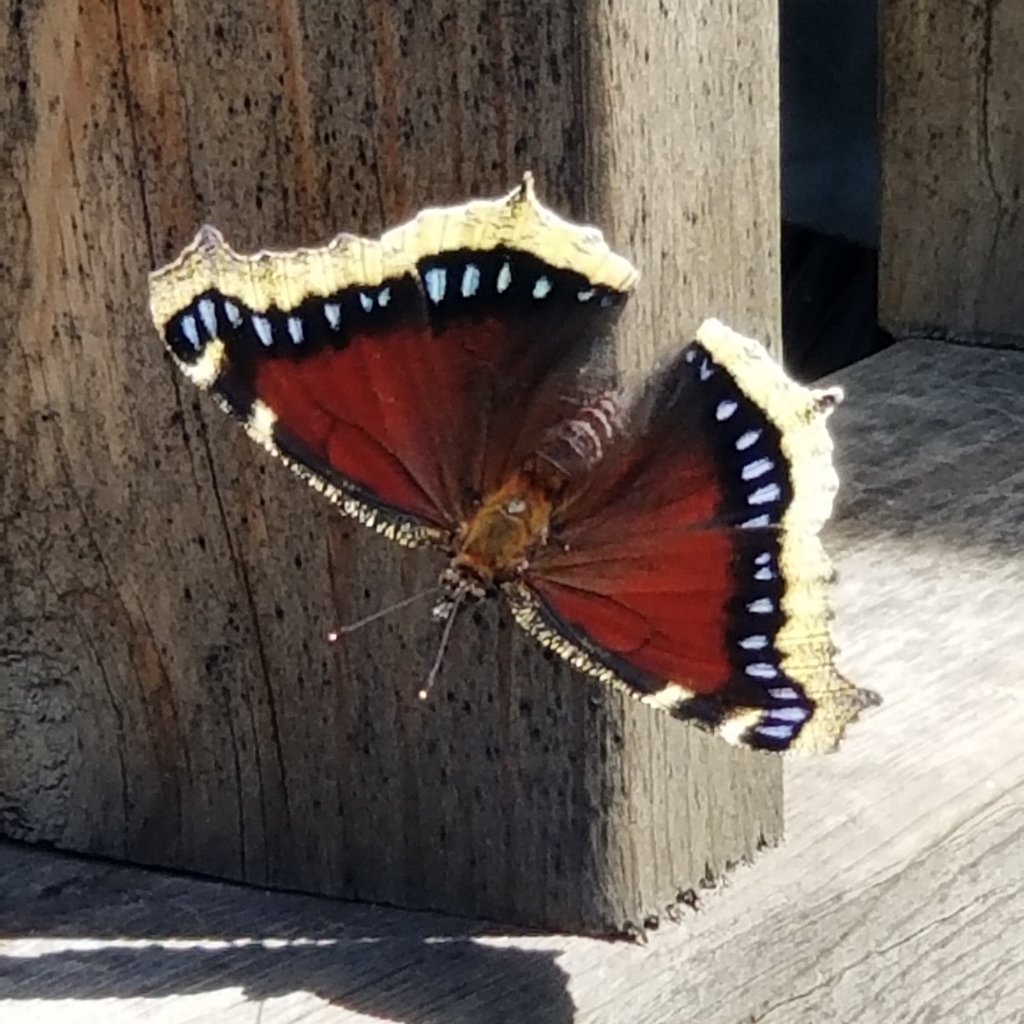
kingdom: Animalia
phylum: Arthropoda
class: Insecta
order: Lepidoptera
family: Nymphalidae
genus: Nymphalis
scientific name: Nymphalis antiopa
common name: Mourning Cloak
